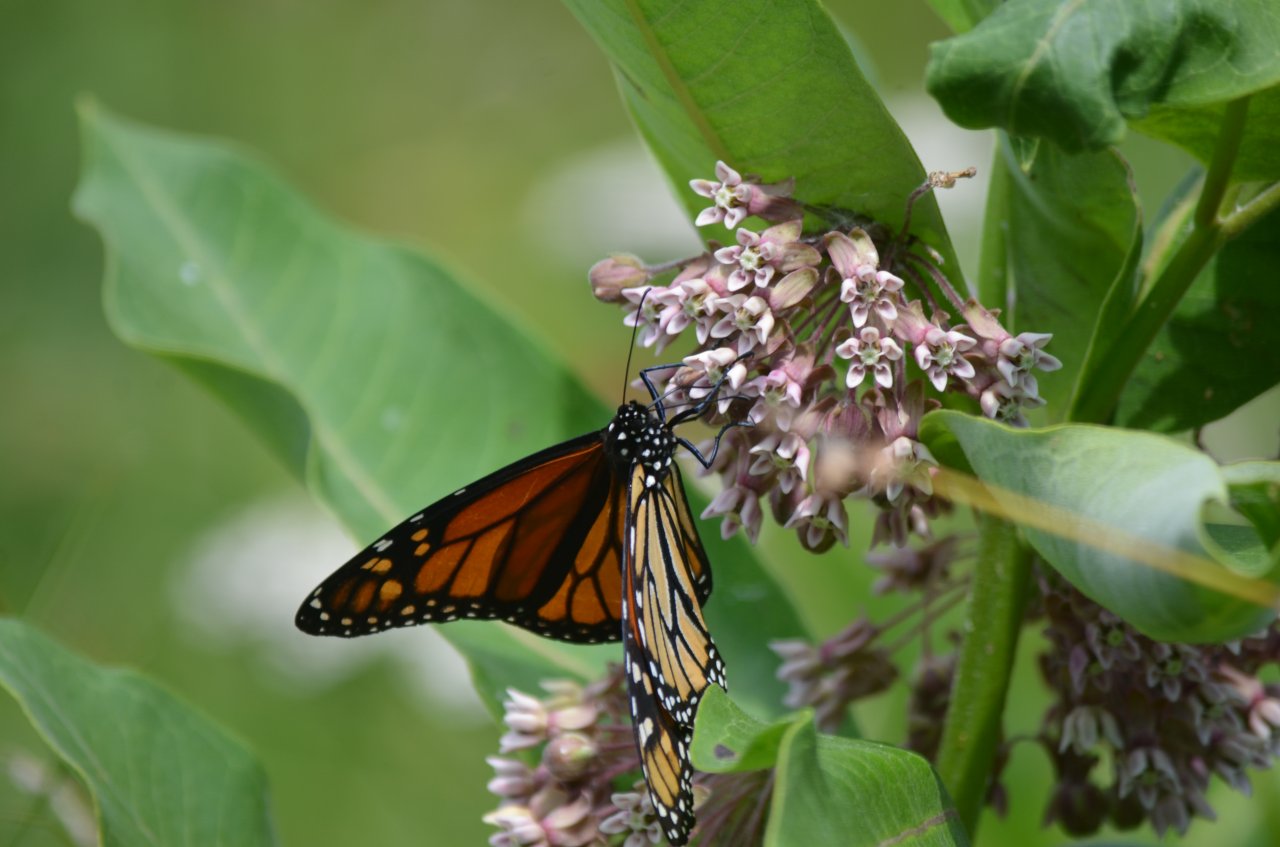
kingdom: Animalia
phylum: Arthropoda
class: Insecta
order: Lepidoptera
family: Nymphalidae
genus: Danaus
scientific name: Danaus plexippus
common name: Monarch
